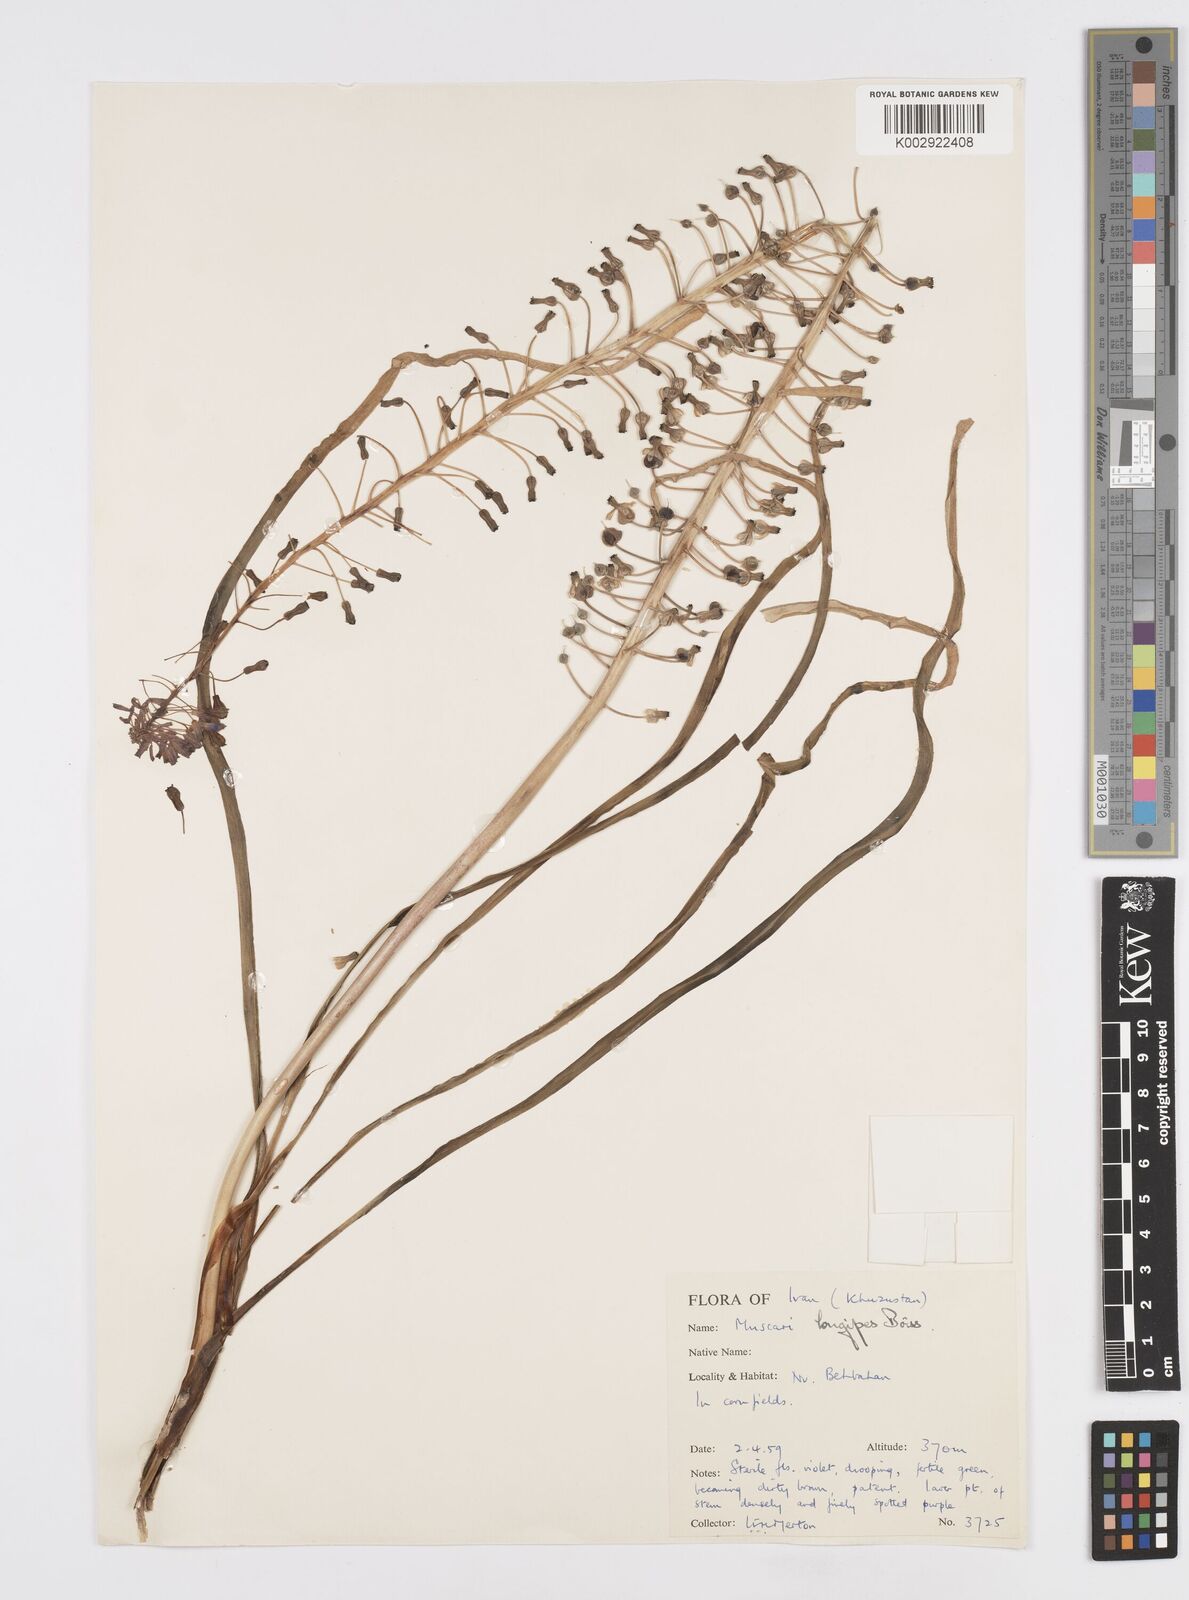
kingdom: Plantae
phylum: Tracheophyta
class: Liliopsida
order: Asparagales
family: Asparagaceae
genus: Muscari
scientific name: Muscari longipes
